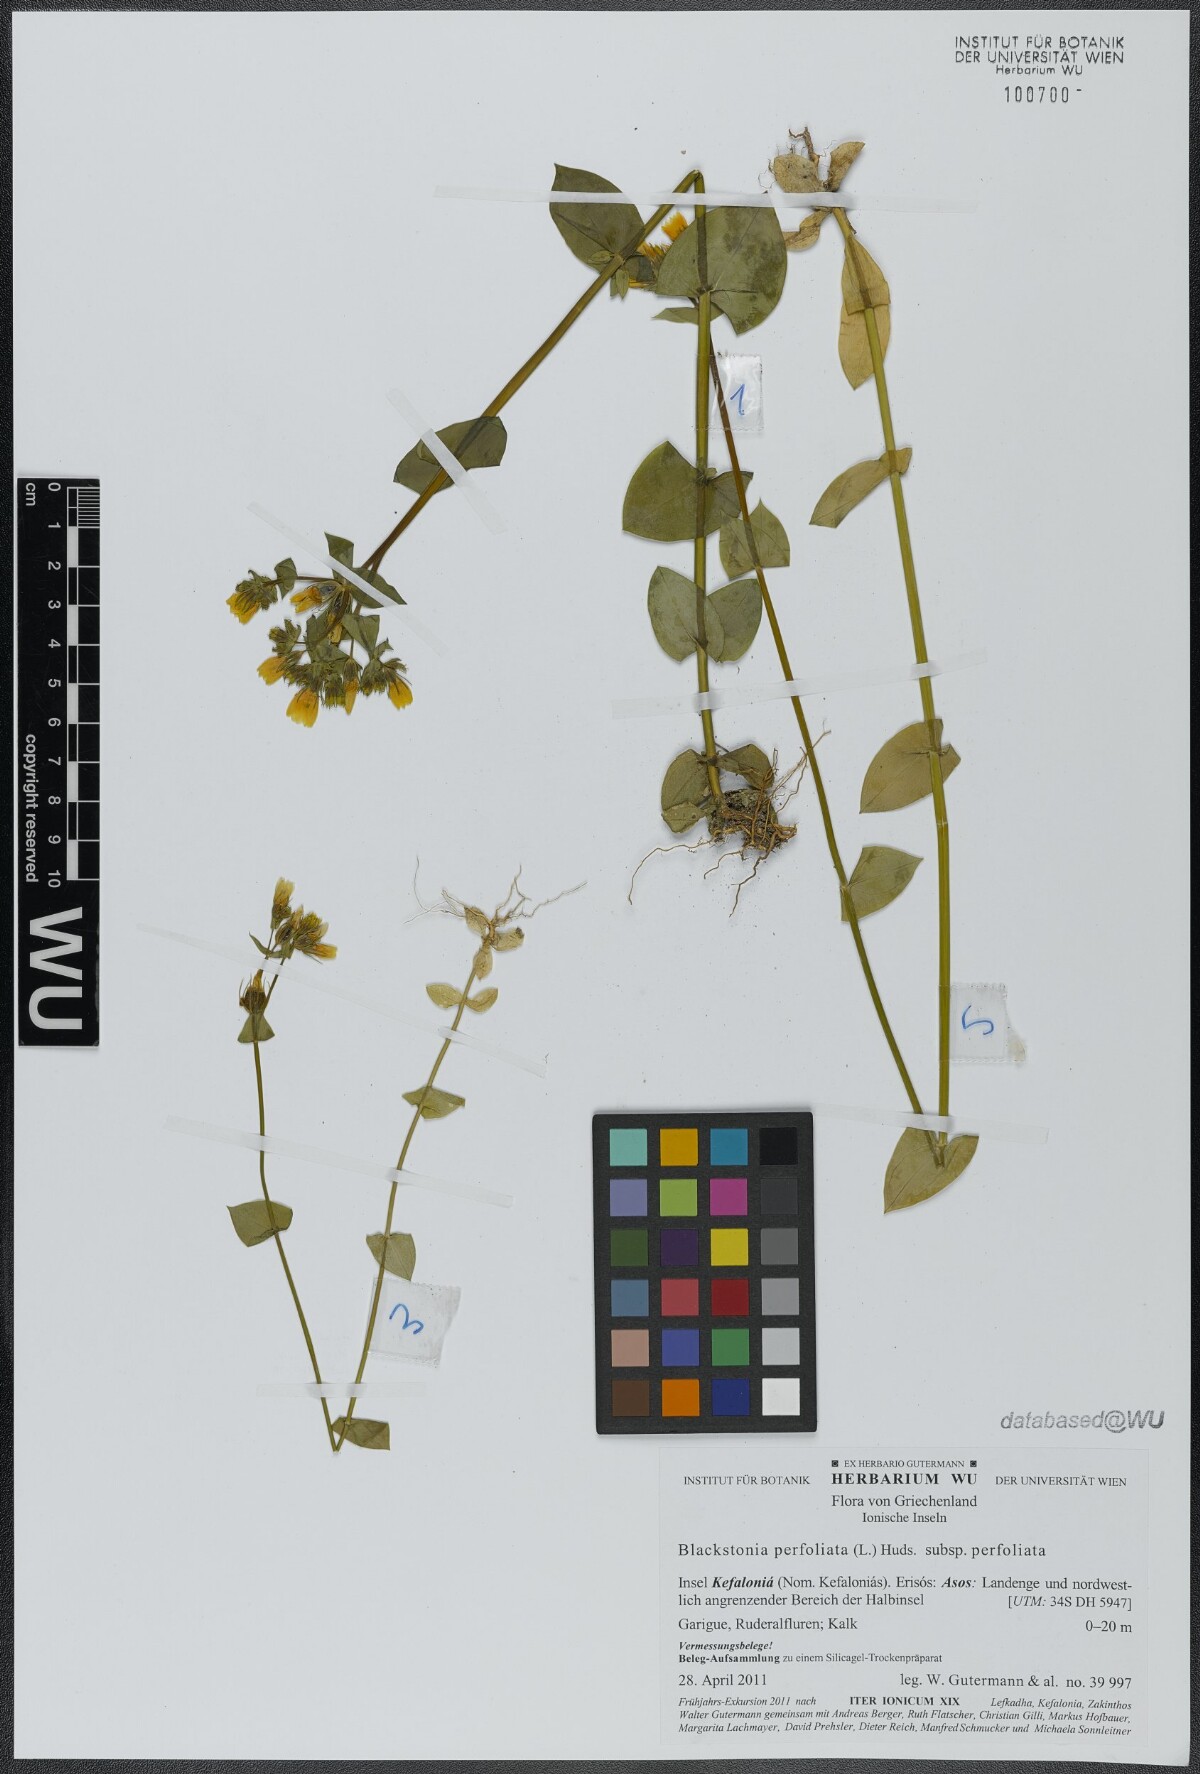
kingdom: Plantae
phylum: Tracheophyta
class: Magnoliopsida
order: Gentianales
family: Gentianaceae
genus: Blackstonia
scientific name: Blackstonia perfoliata
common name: Yellow-wort
